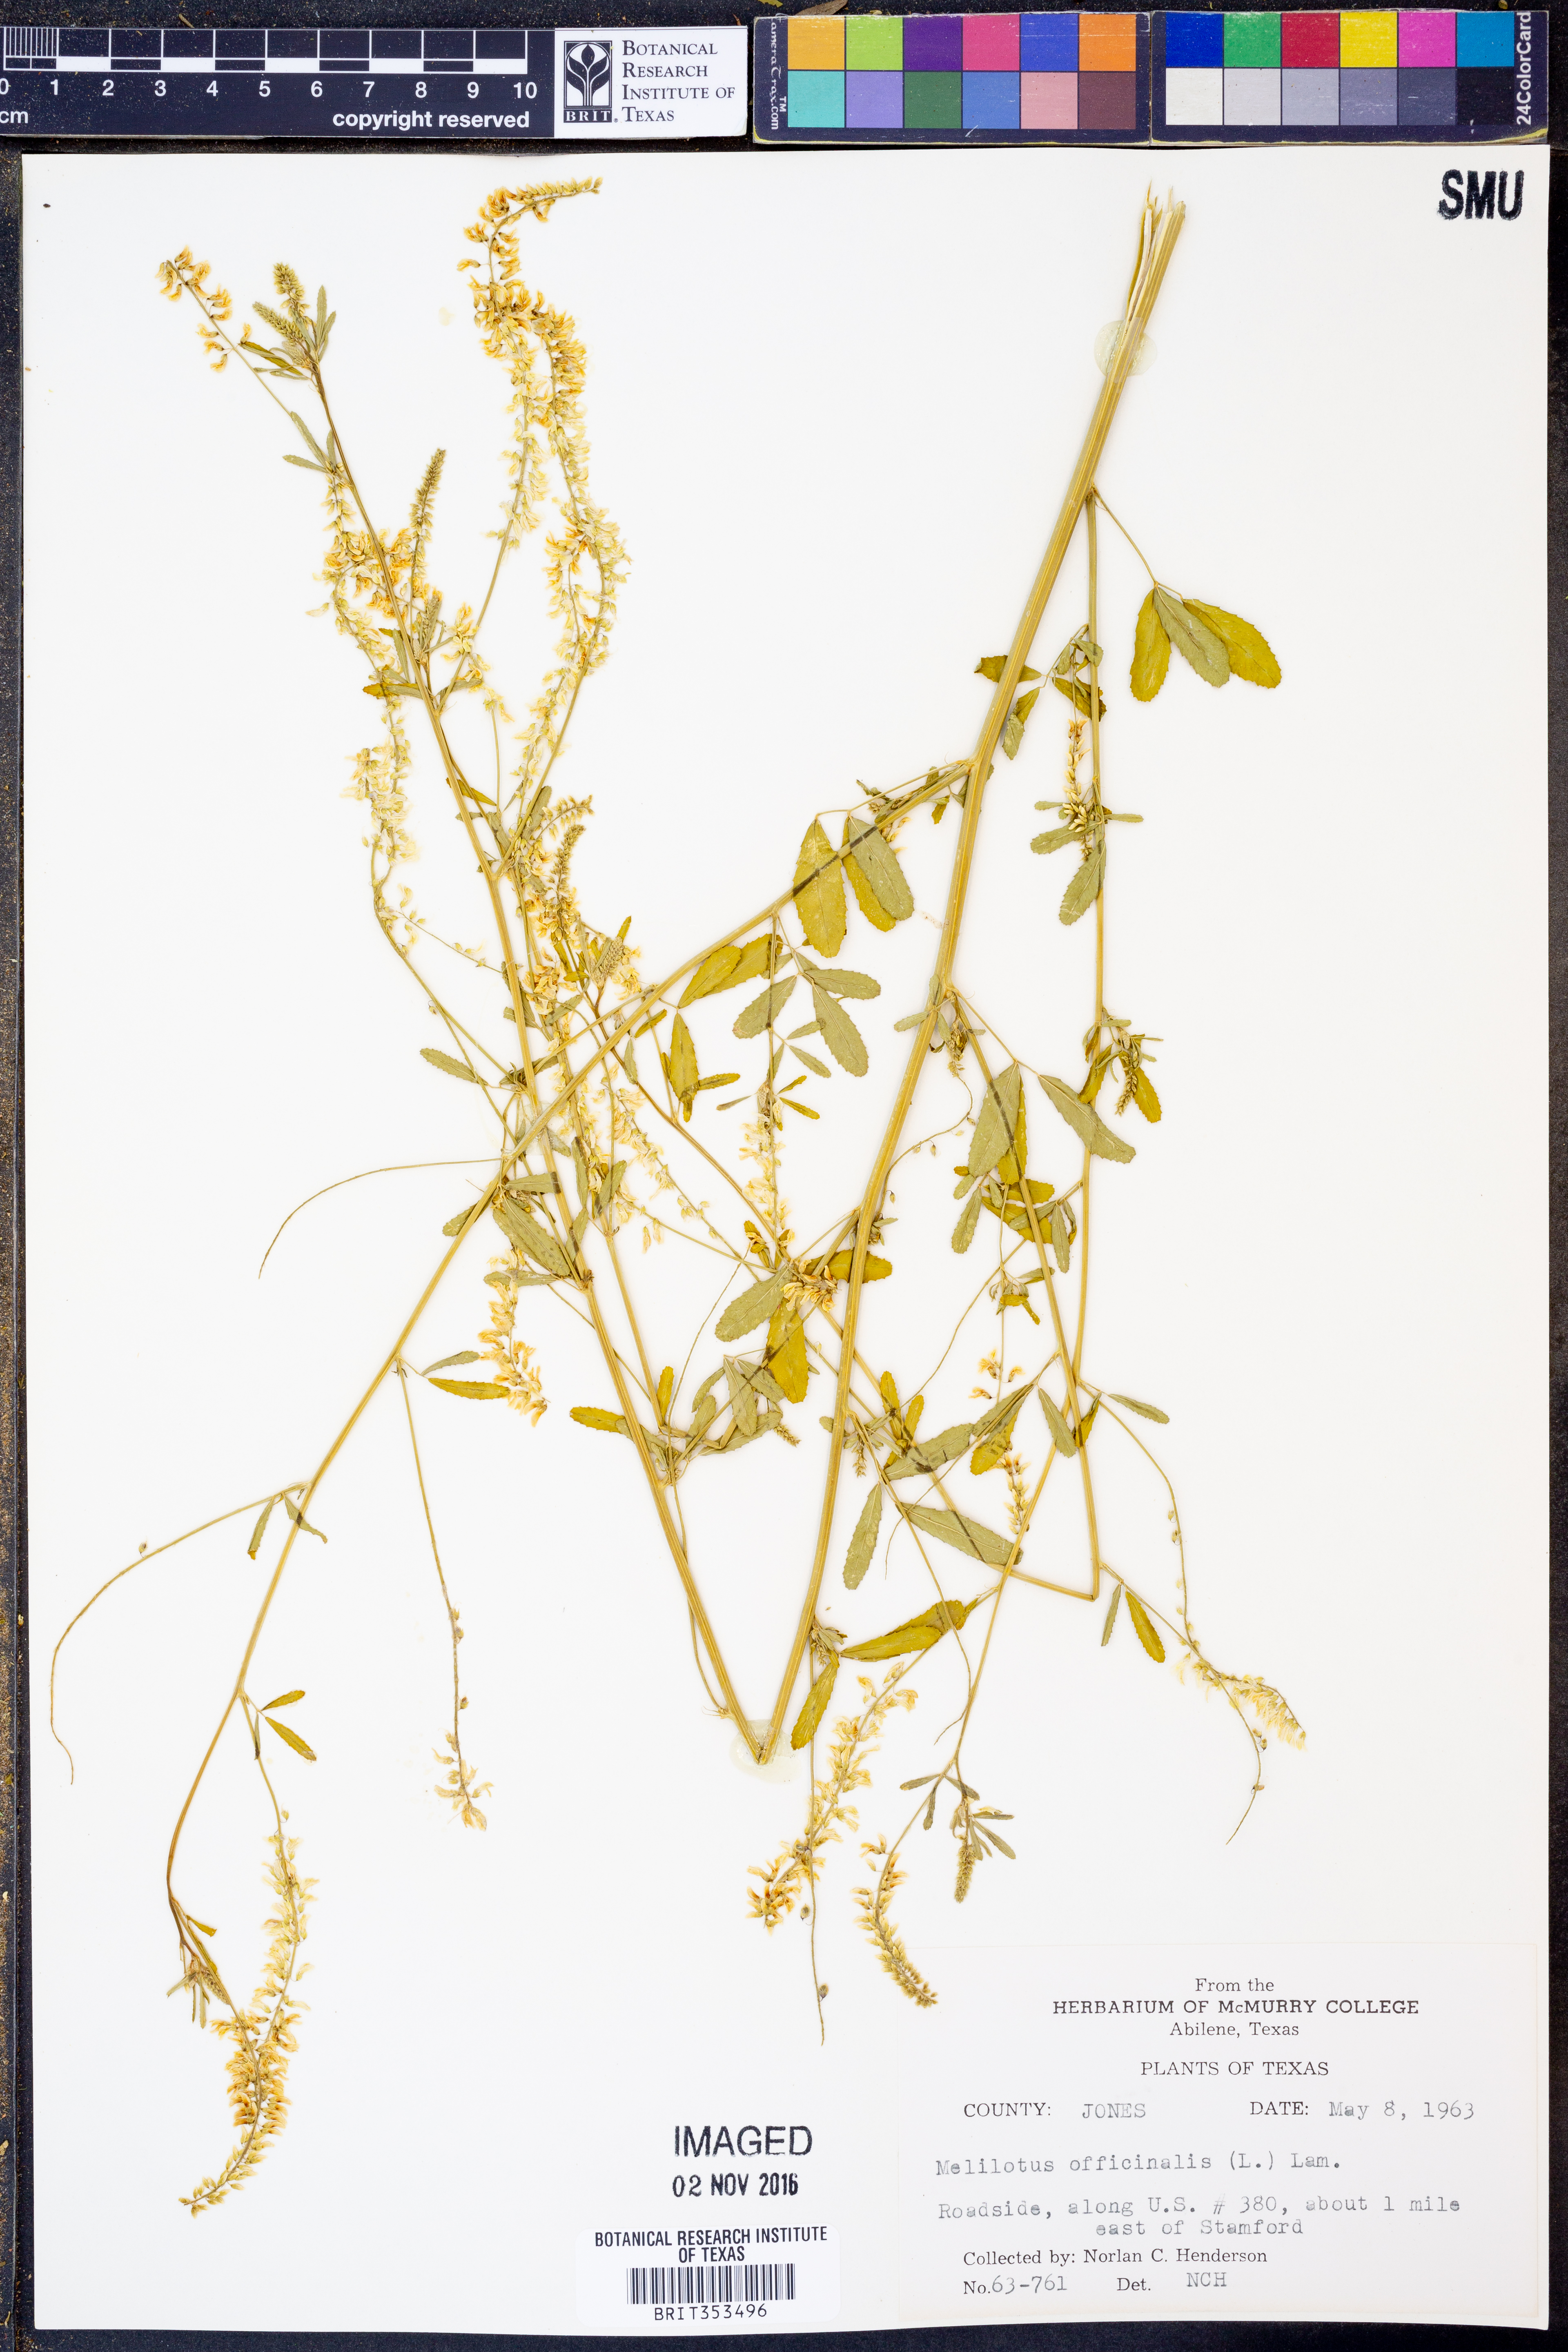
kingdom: Plantae
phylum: Tracheophyta
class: Magnoliopsida
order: Fabales
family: Fabaceae
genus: Melilotus
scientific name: Melilotus officinalis
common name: Sweetclover
